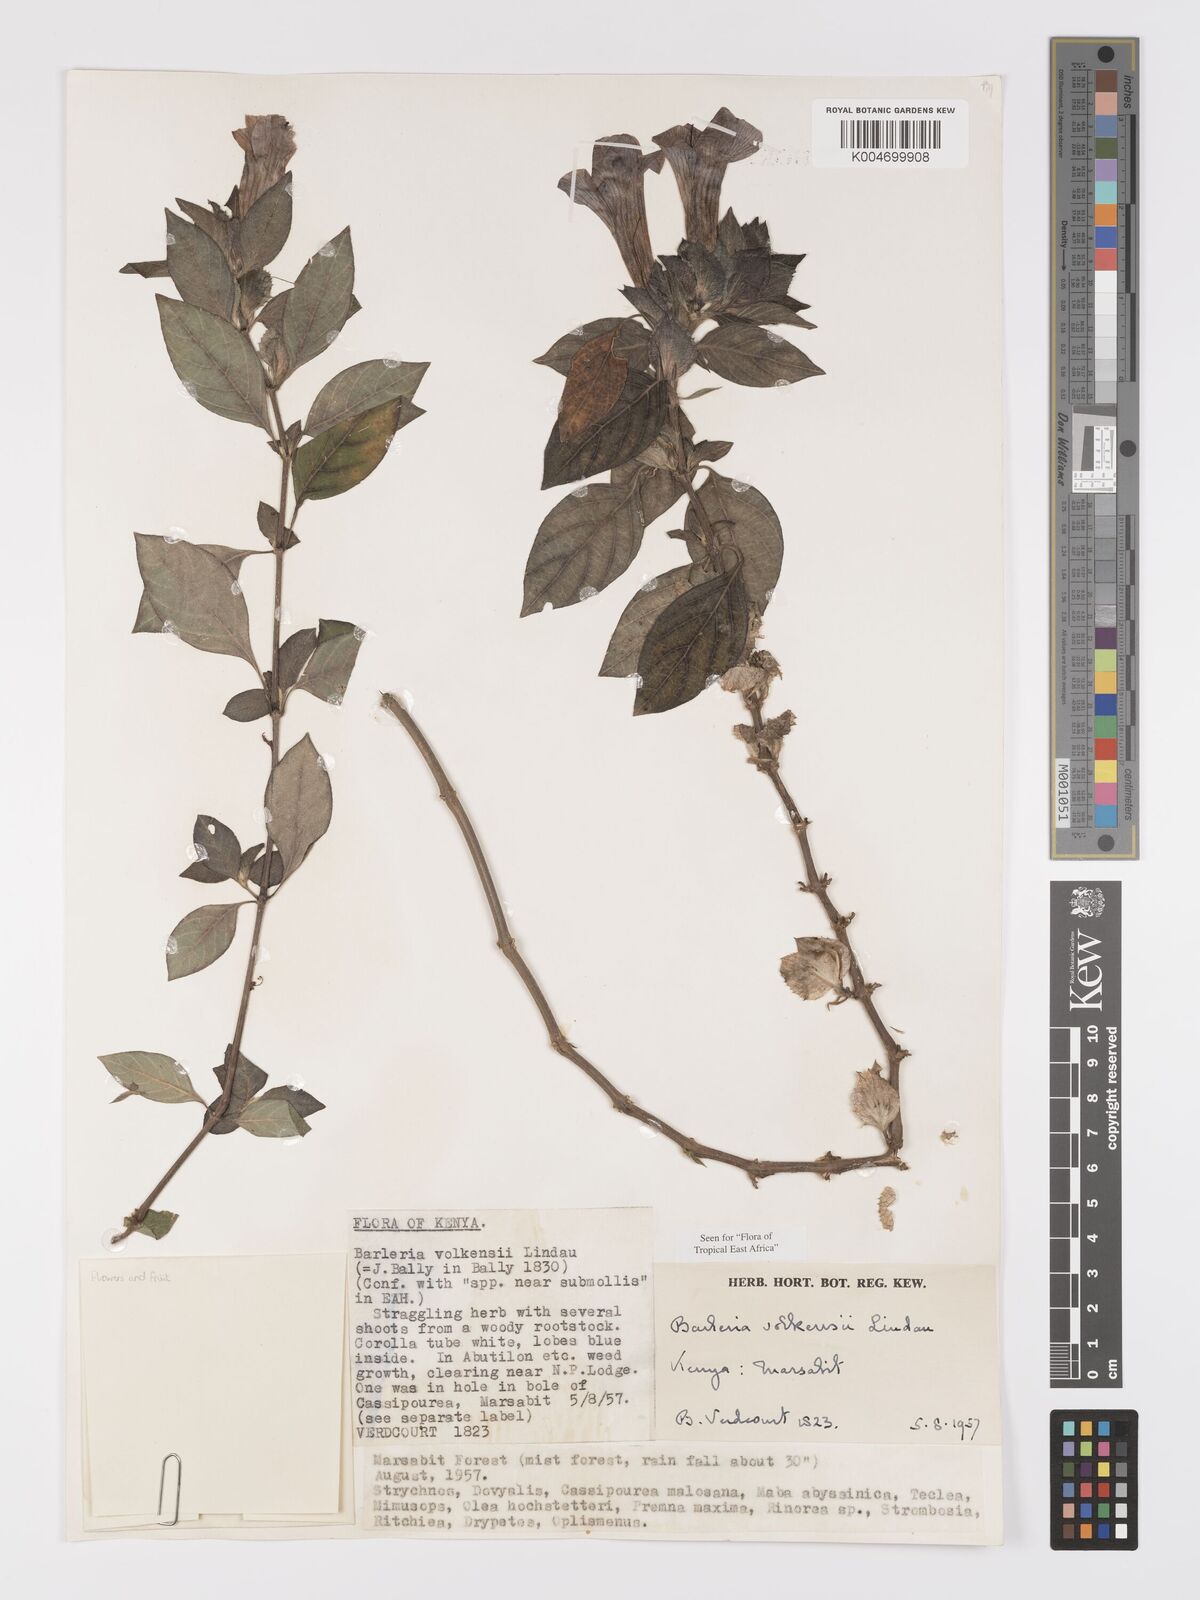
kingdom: Plantae
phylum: Tracheophyta
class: Magnoliopsida
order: Lamiales
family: Acanthaceae
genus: Barleria
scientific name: Barleria volkensii
